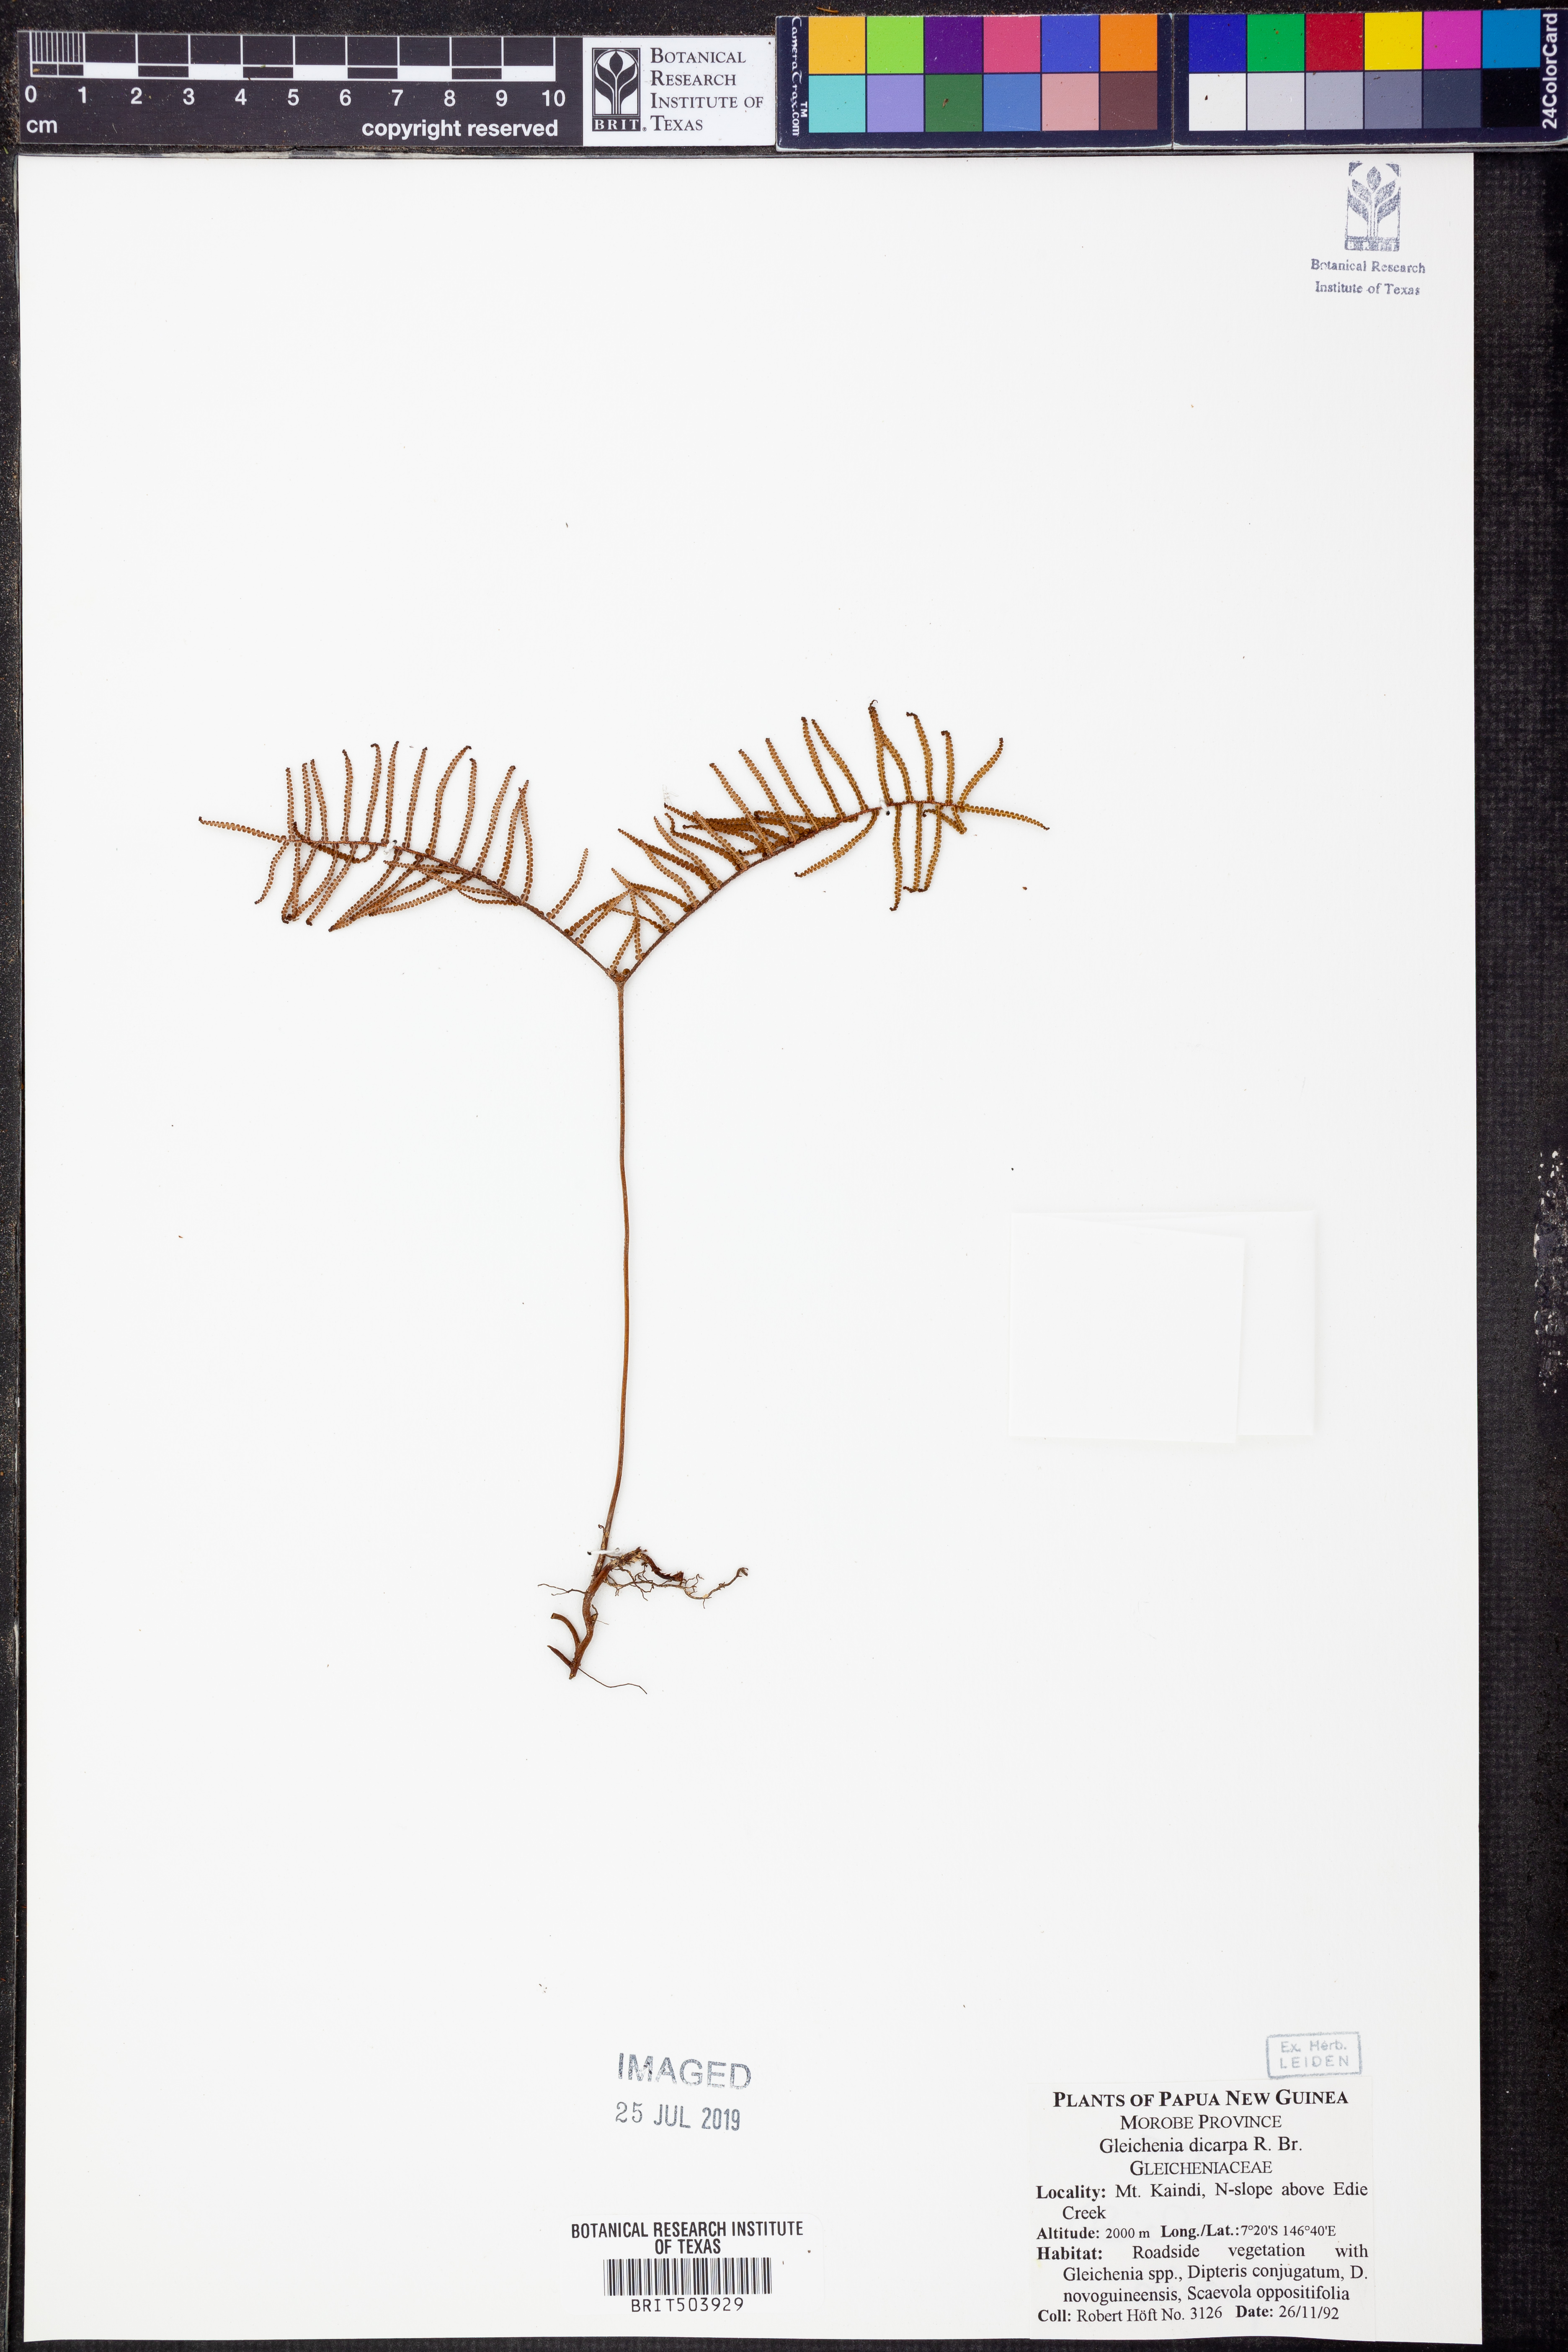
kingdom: Plantae
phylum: Tracheophyta
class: Polypodiopsida
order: Gleicheniales
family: Gleicheniaceae
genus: Gleichenia
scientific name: Gleichenia dicarpa
